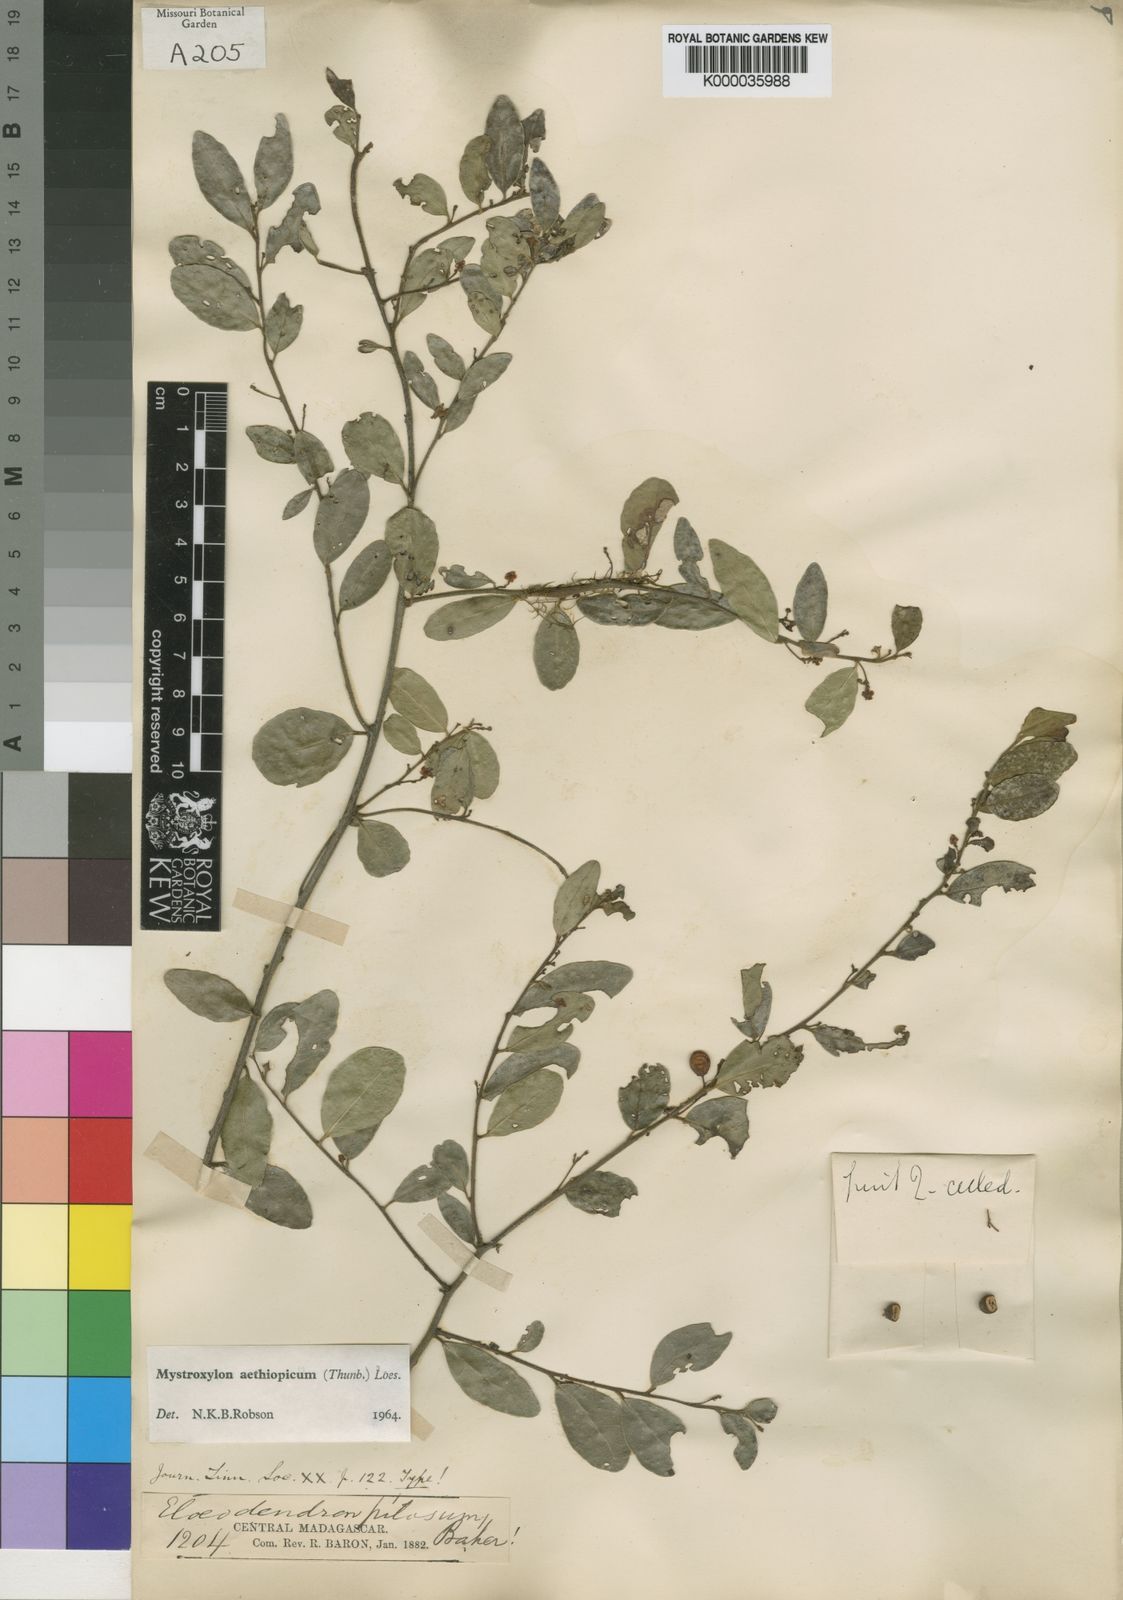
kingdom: Plantae
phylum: Tracheophyta
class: Magnoliopsida
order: Celastrales
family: Celastraceae
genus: Mystroxylon
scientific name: Mystroxylon aethiopicum
